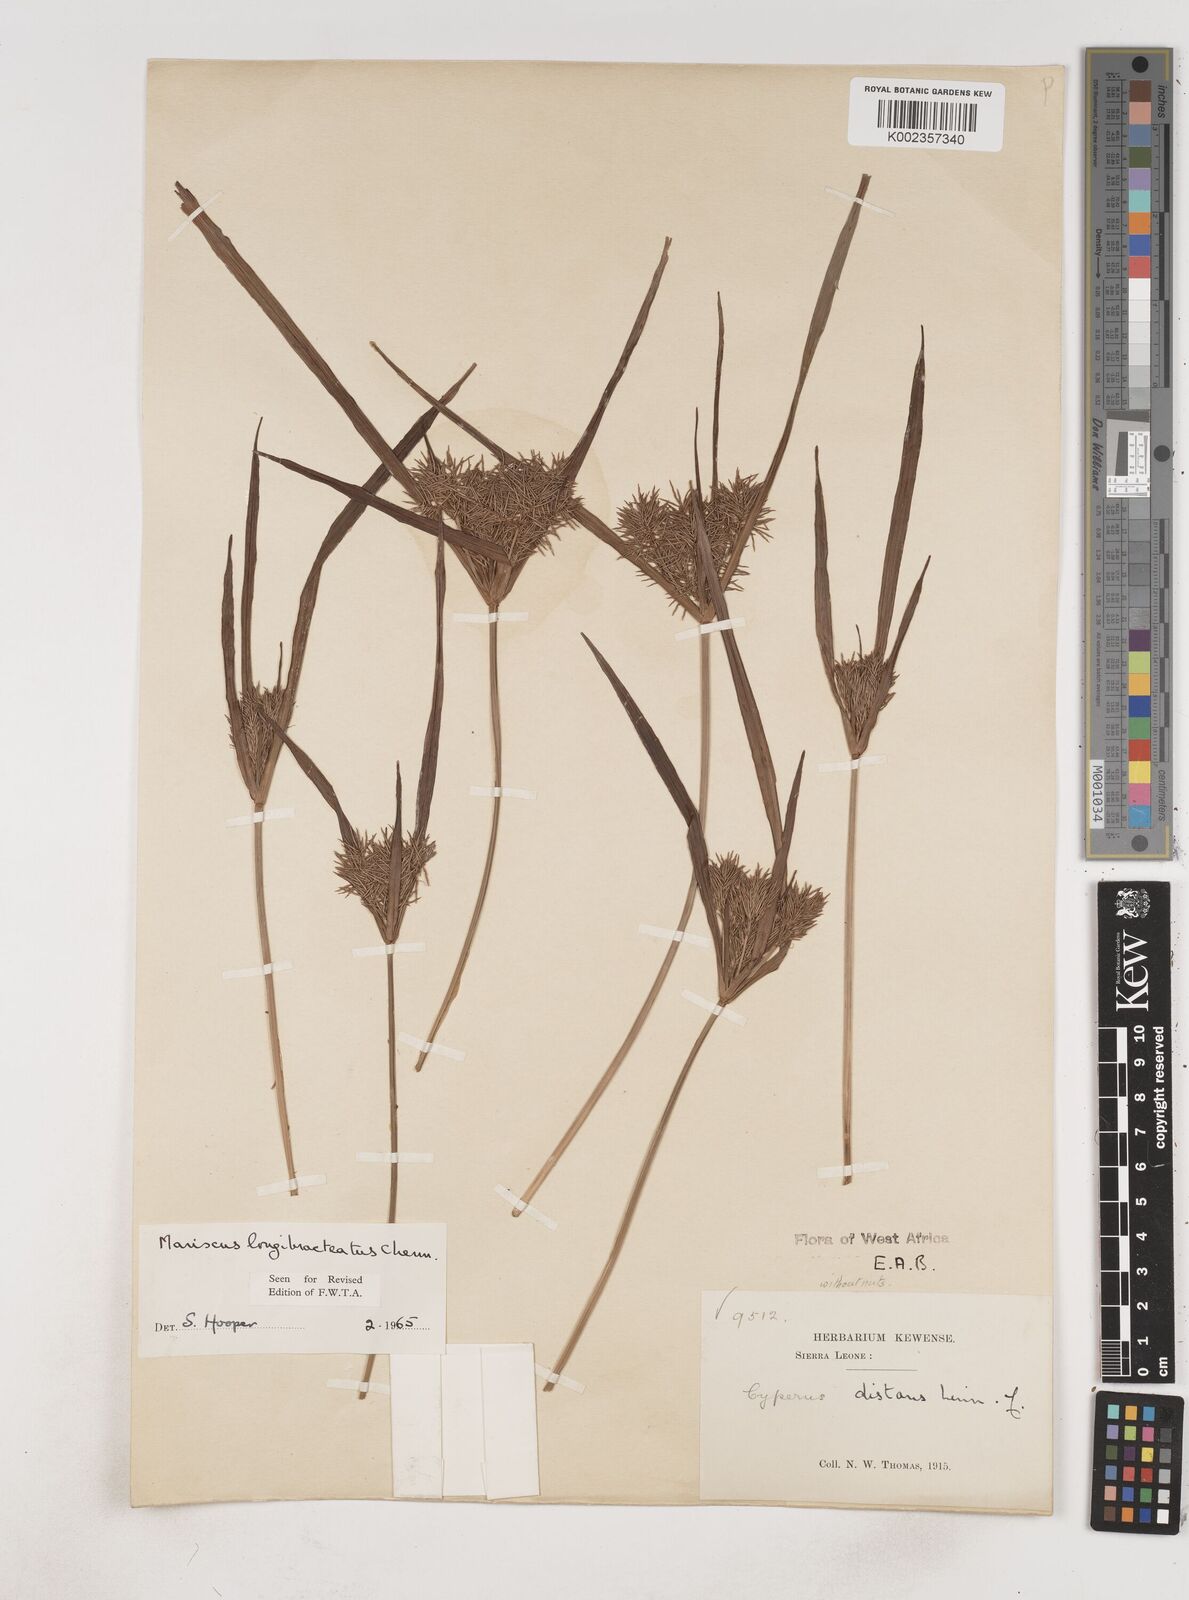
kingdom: Plantae
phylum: Tracheophyta
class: Liliopsida
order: Poales
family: Cyperaceae
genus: Cyperus
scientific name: Cyperus distans
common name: Slender cyperus
